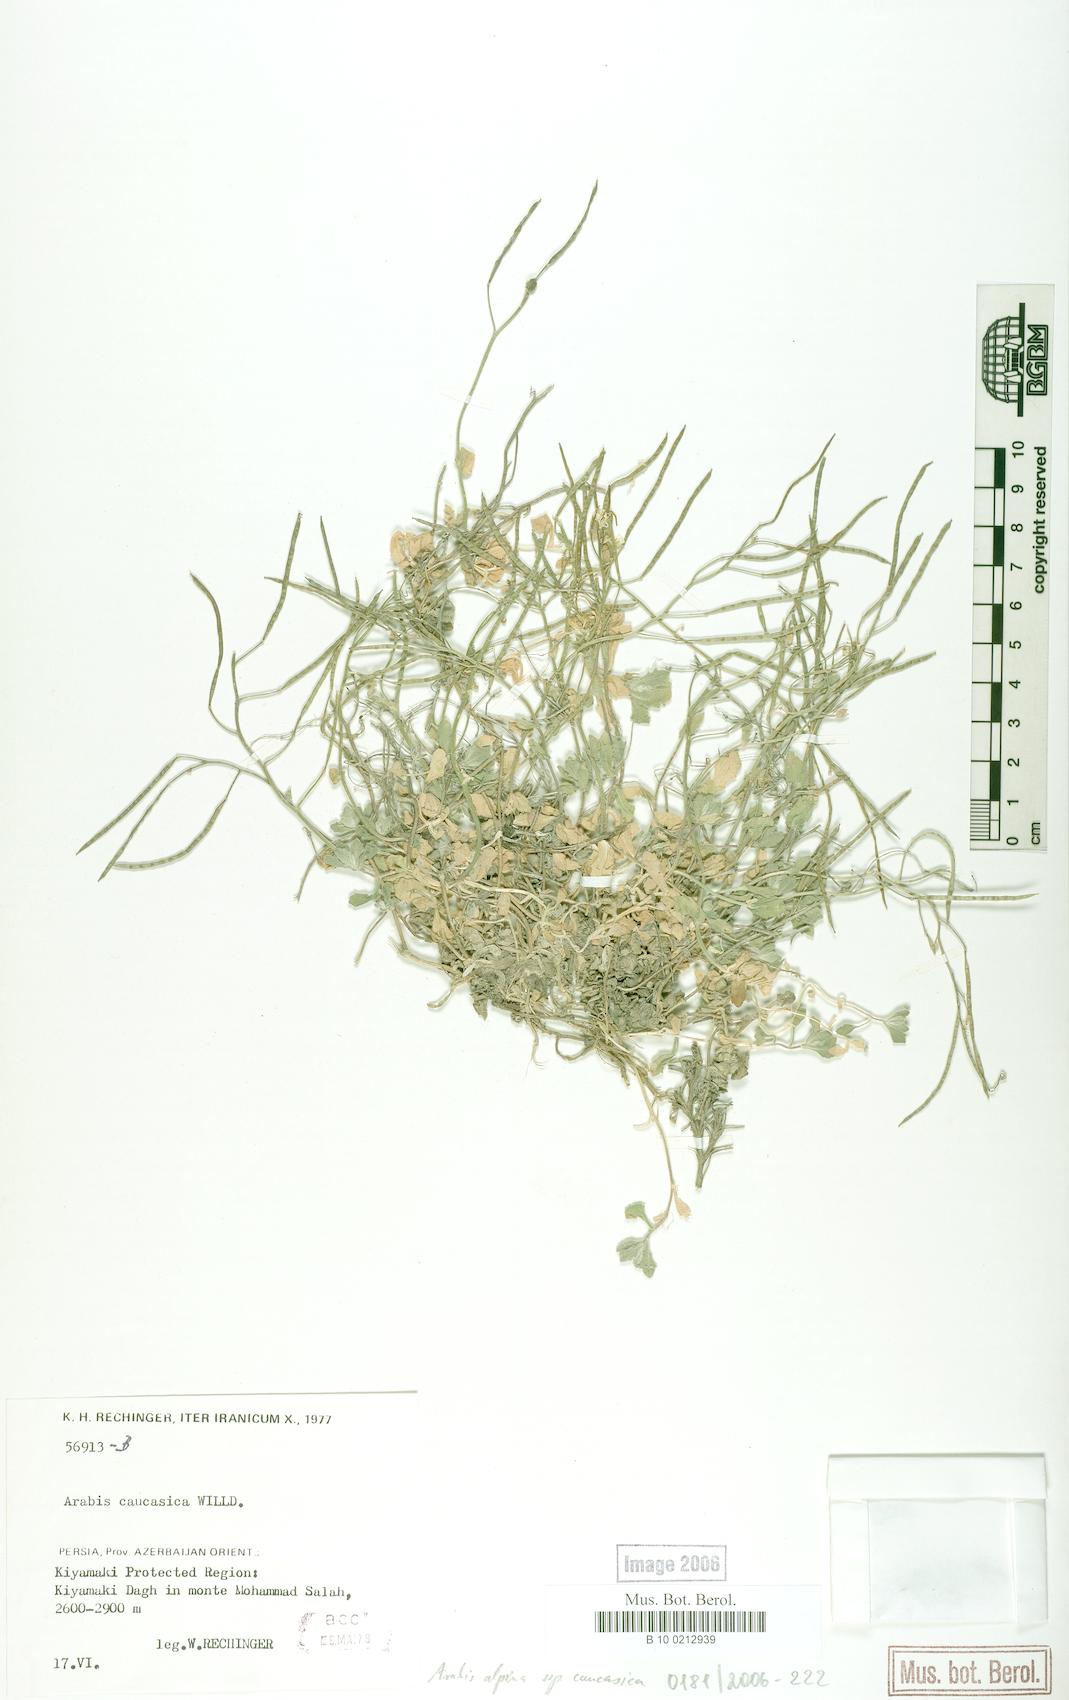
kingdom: Plantae
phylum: Tracheophyta
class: Magnoliopsida
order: Brassicales
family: Brassicaceae
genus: Arabis
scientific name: Arabis caucasica
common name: Gray rockcress
